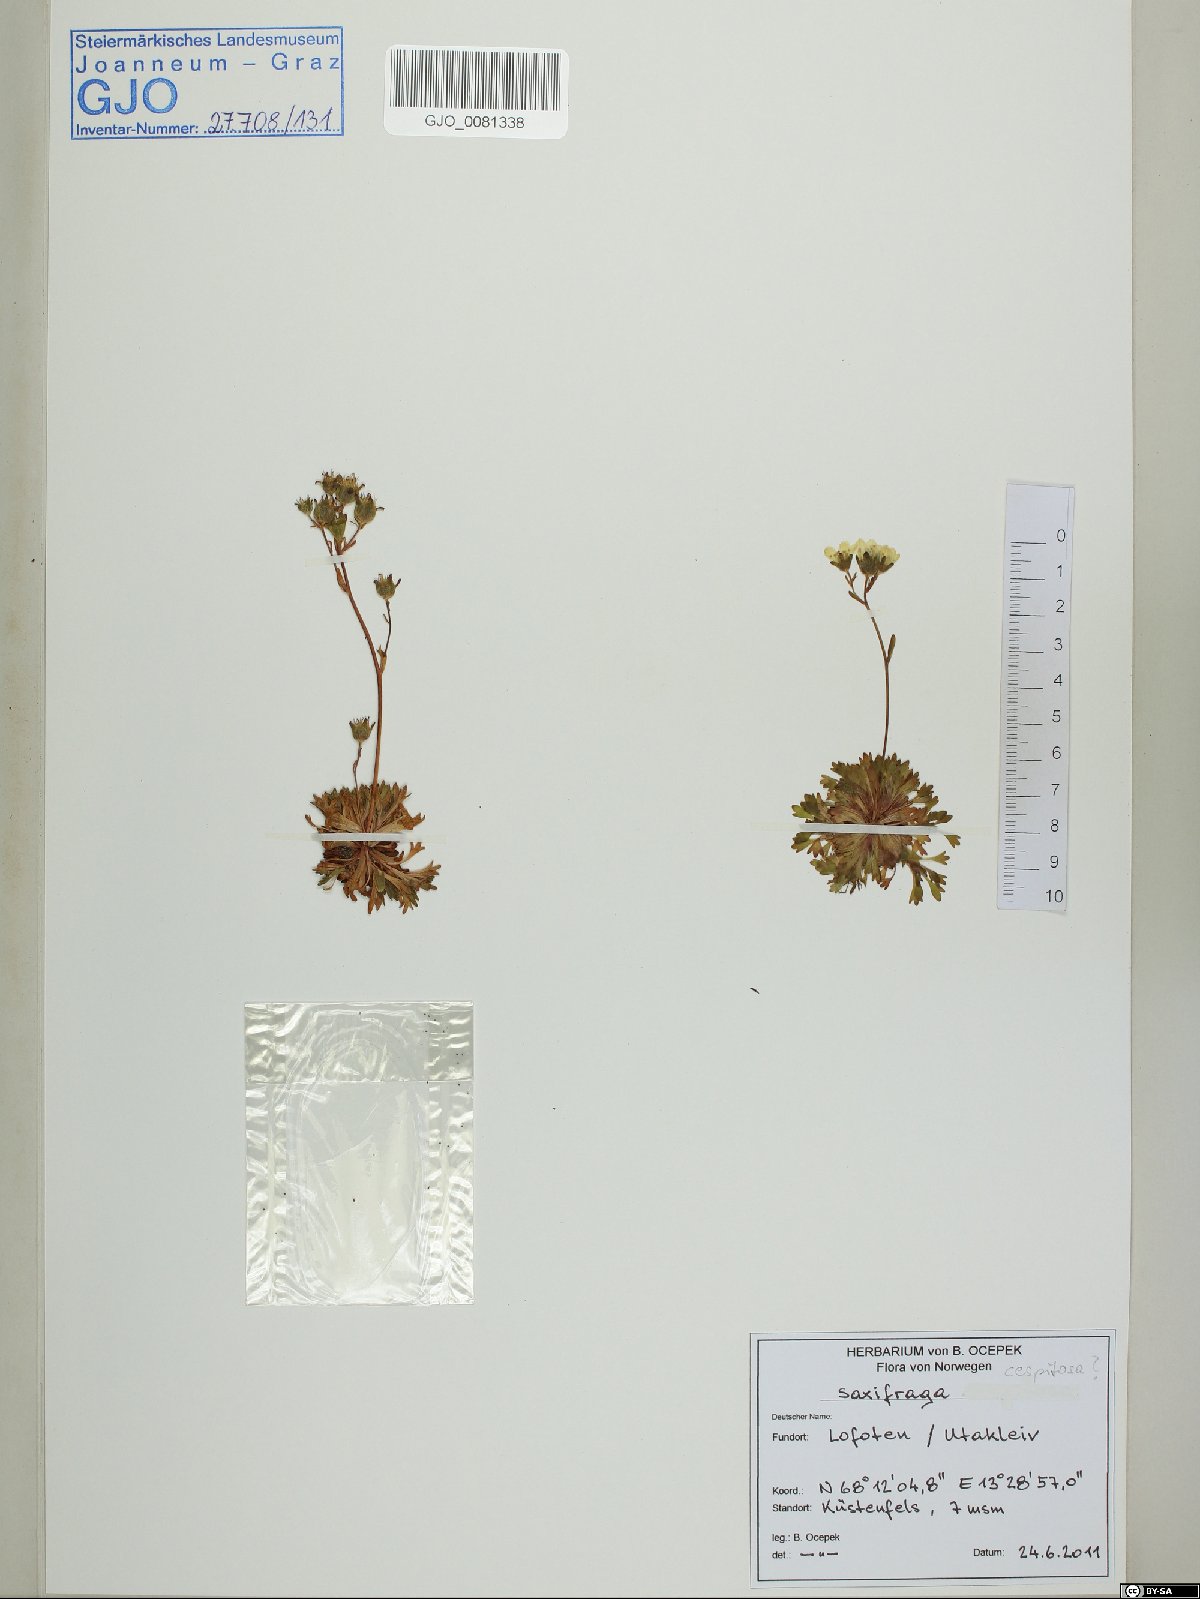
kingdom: Plantae
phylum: Tracheophyta
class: Magnoliopsida
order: Saxifragales
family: Saxifragaceae
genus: Saxifraga
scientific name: Saxifraga cespitosa
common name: Tufted saxifrage
